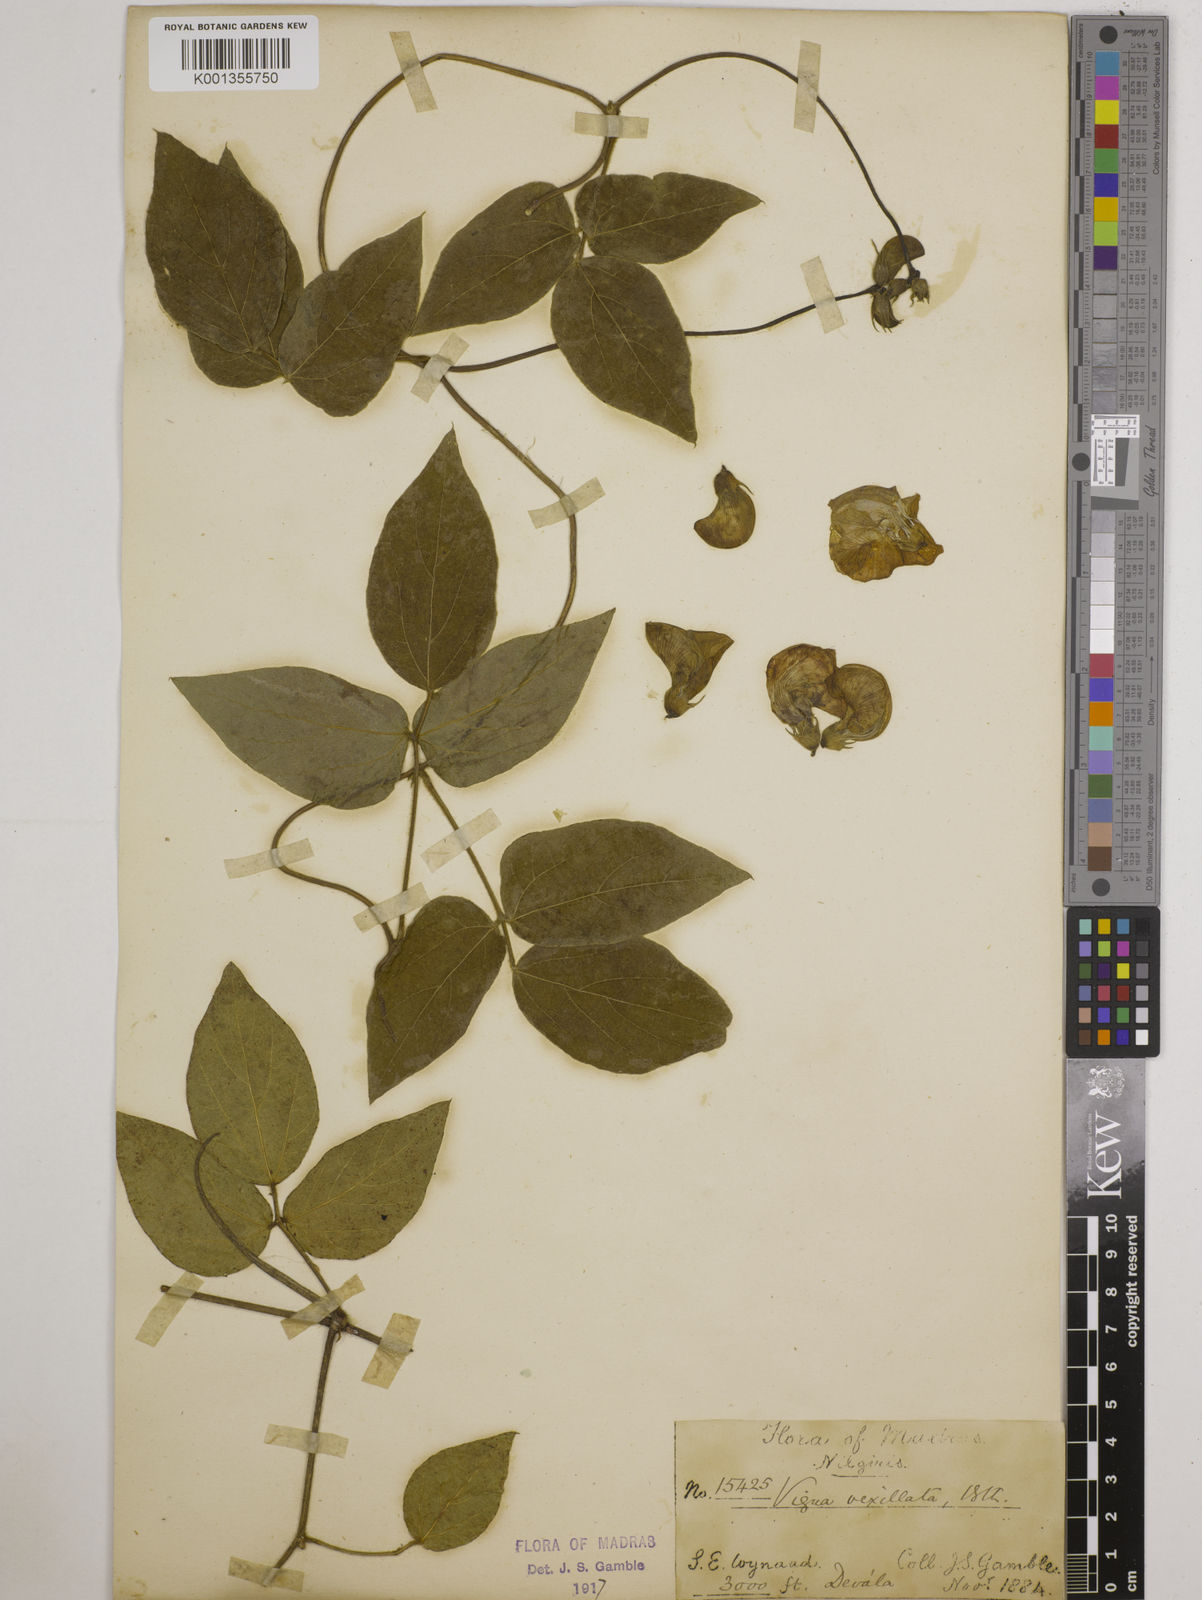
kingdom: Plantae
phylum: Tracheophyta
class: Magnoliopsida
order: Fabales
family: Fabaceae
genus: Vigna
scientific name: Vigna vexillata
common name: Zombi pea
